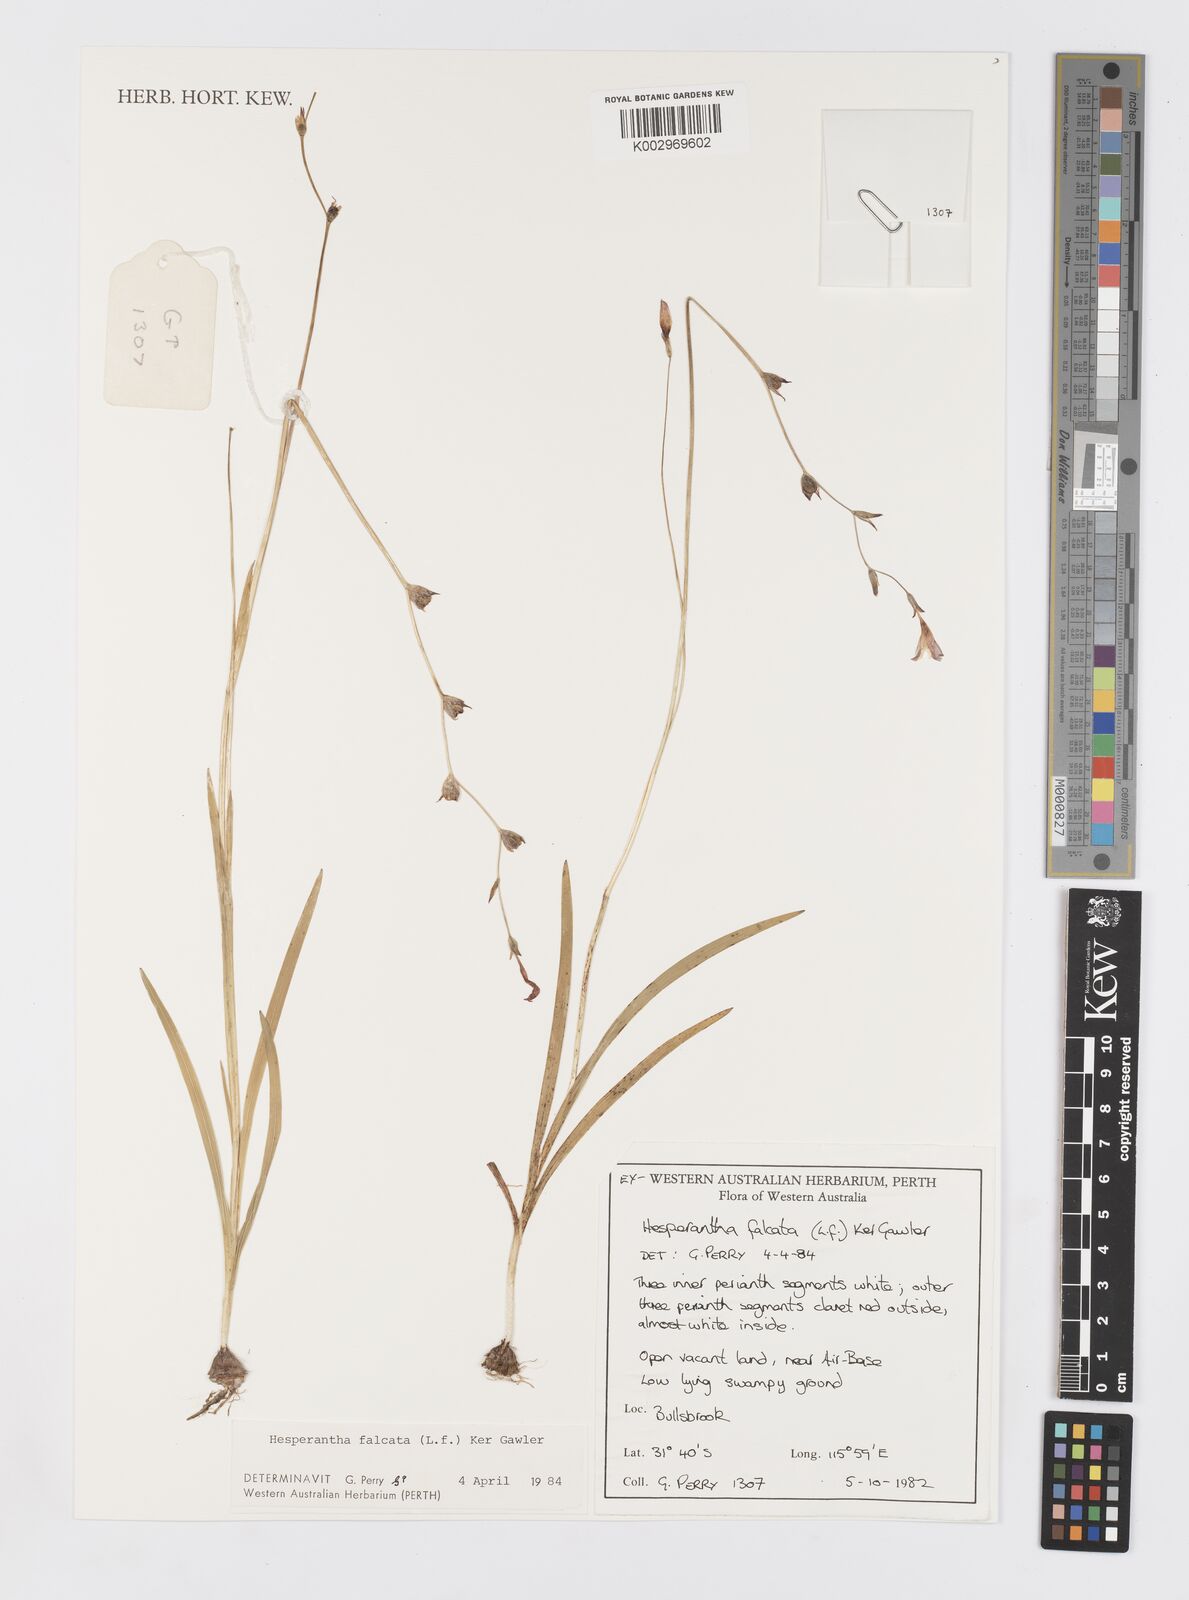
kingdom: Plantae
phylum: Tracheophyta
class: Liliopsida
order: Asparagales
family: Iridaceae
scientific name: Iridaceae
